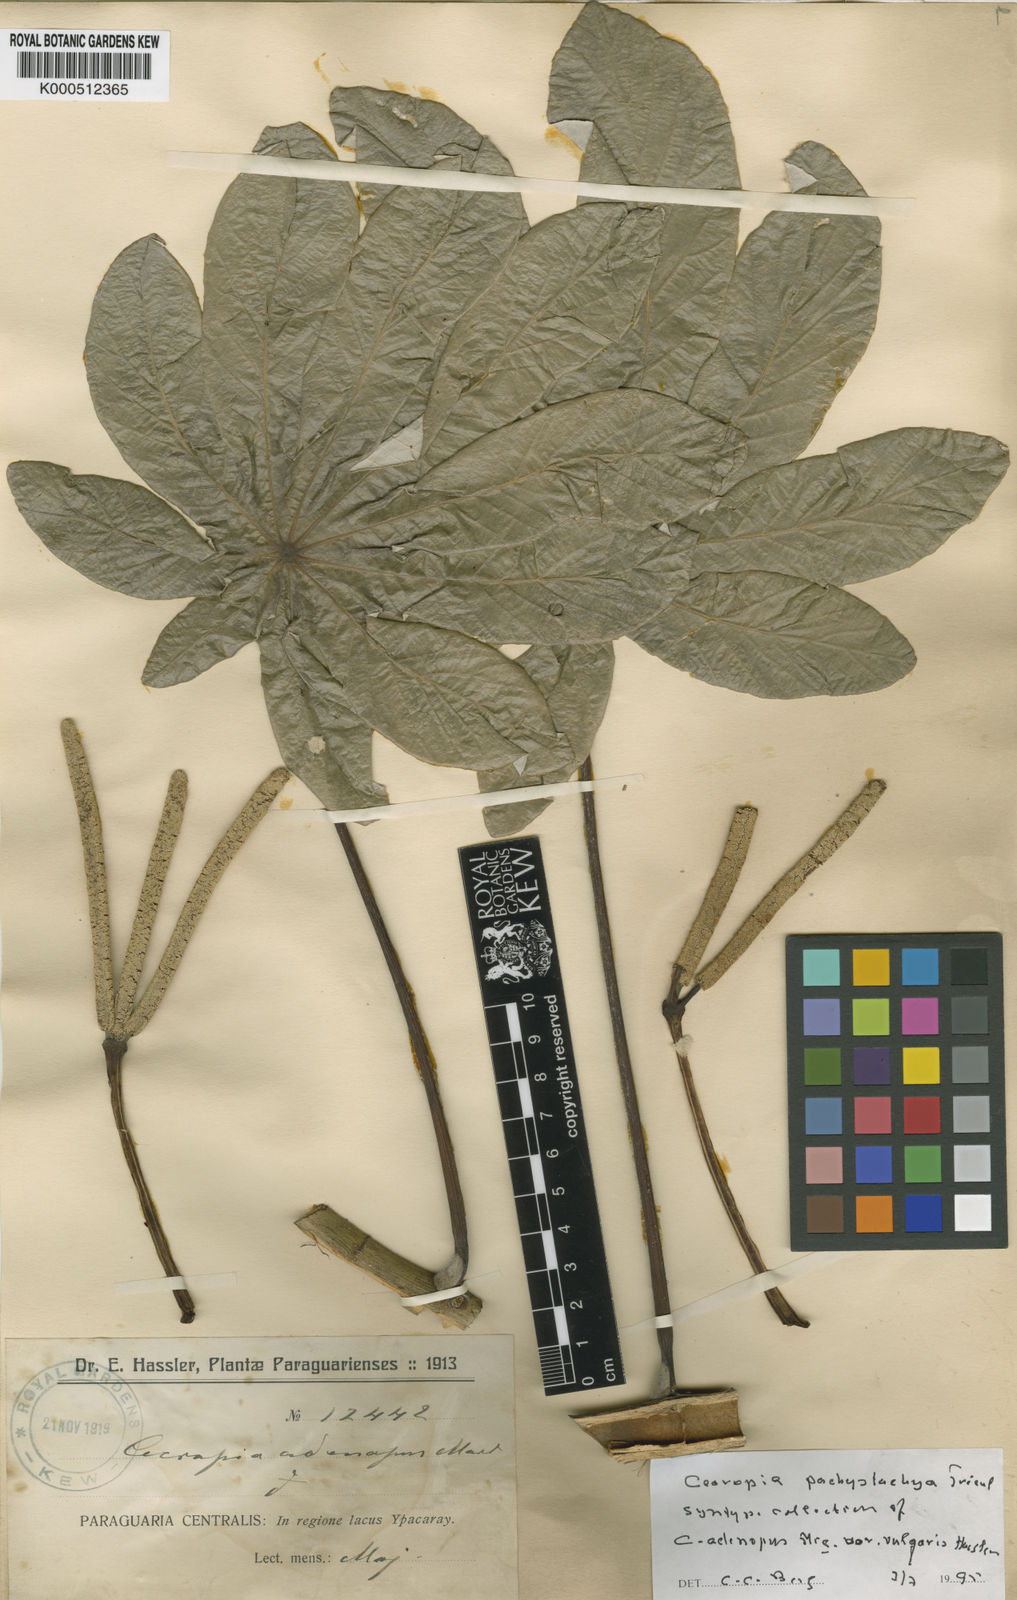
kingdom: Plantae
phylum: Tracheophyta
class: Magnoliopsida
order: Rosales
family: Urticaceae
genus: Cecropia
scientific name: Cecropia
